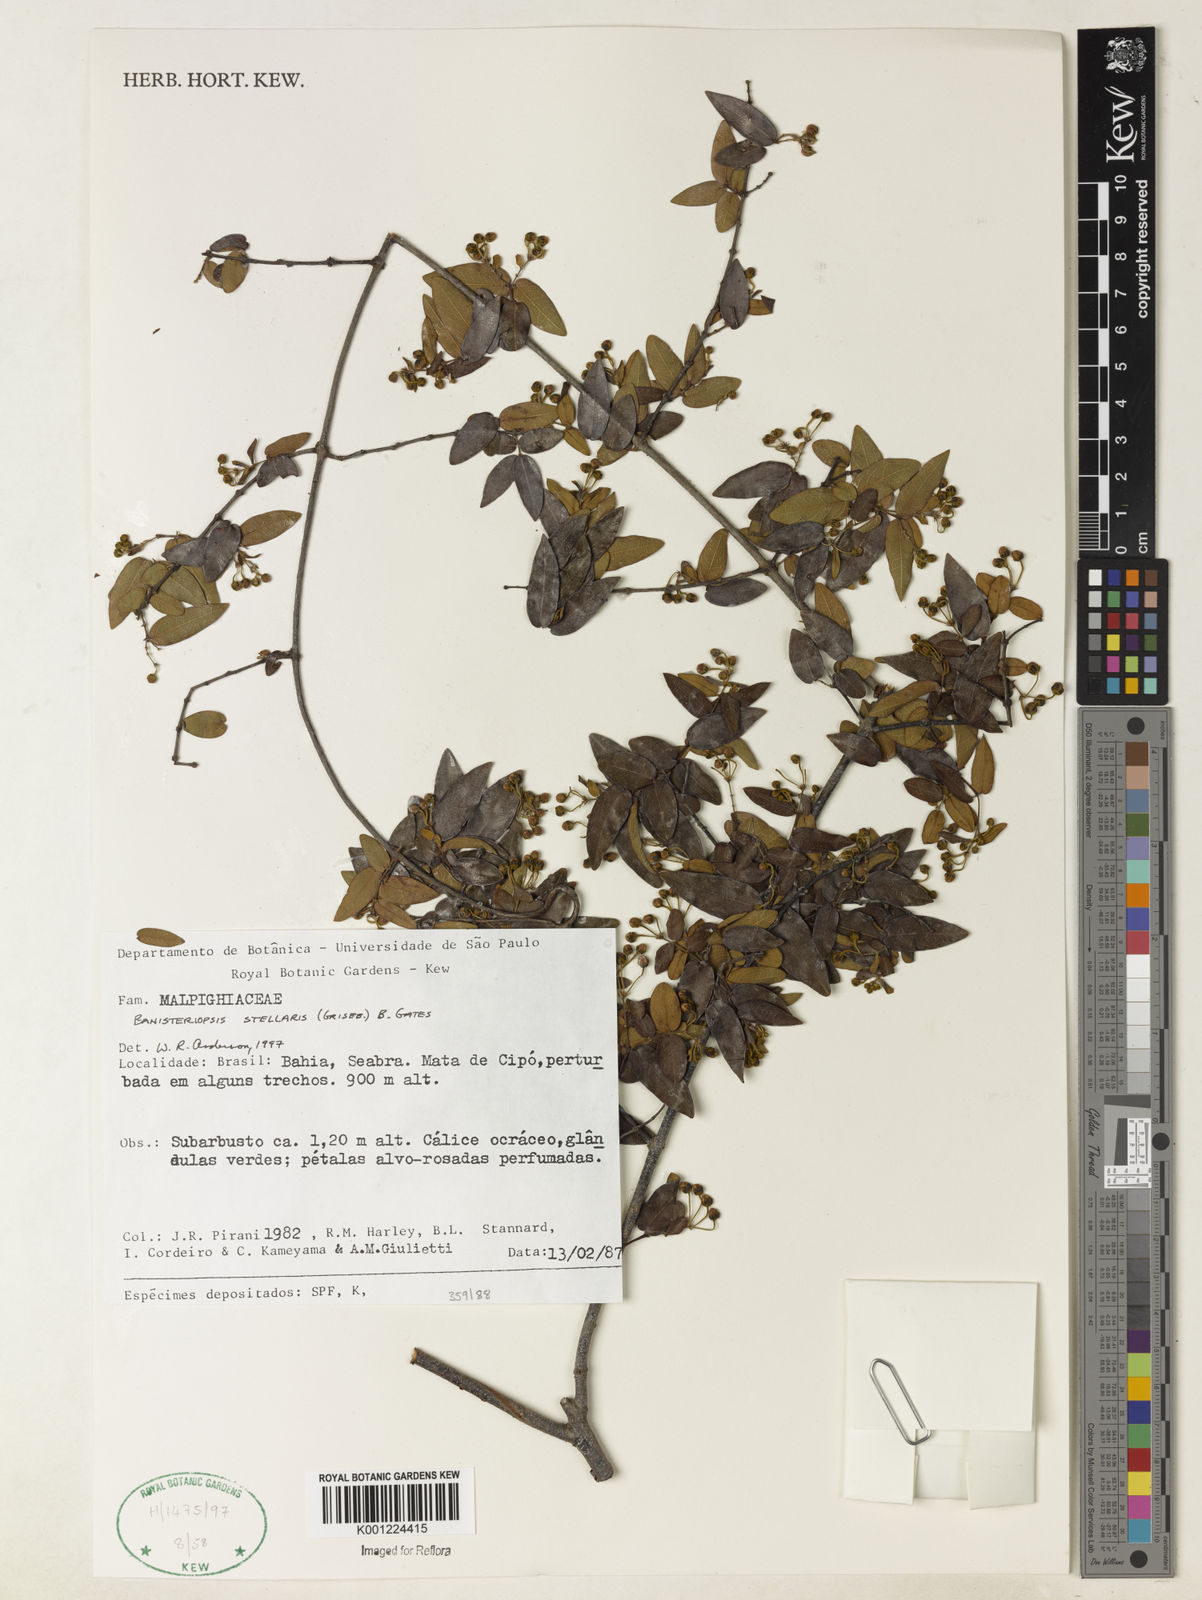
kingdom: Plantae
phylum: Tracheophyta
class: Magnoliopsida
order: Malpighiales
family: Malpighiaceae
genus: Banisteriopsis
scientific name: Banisteriopsis stellaris
